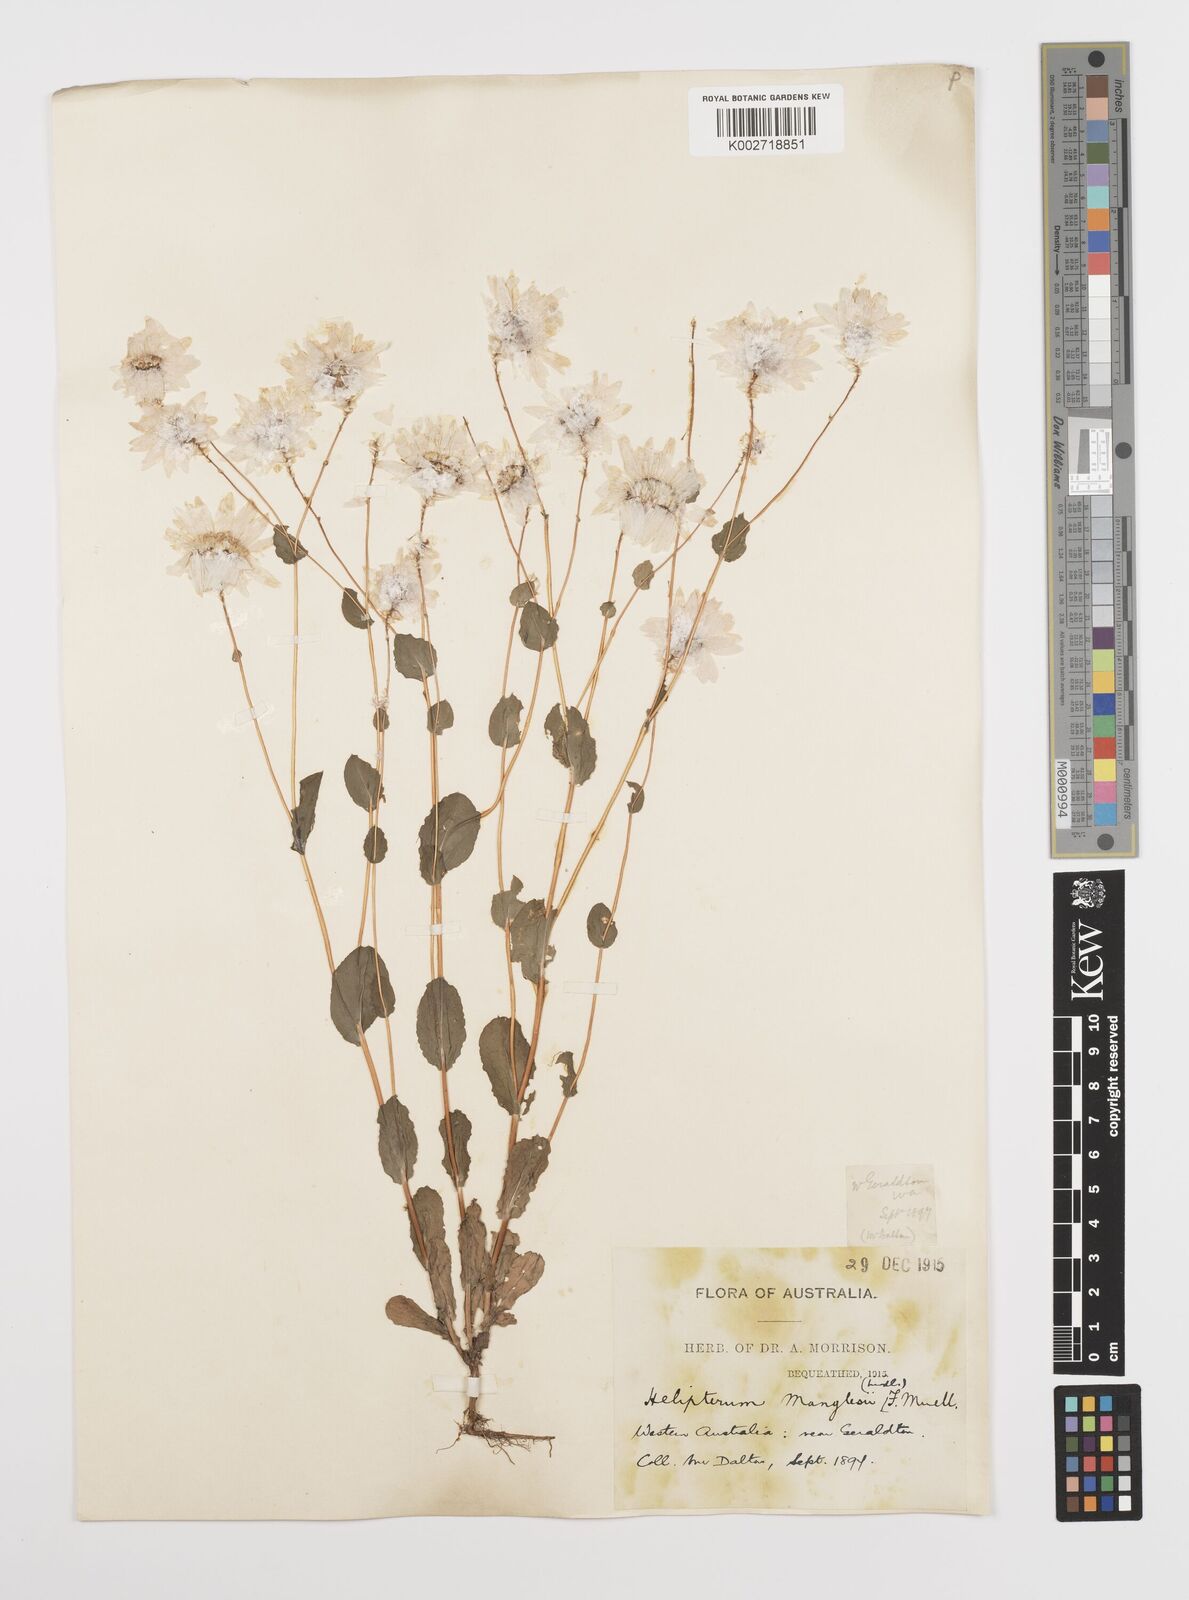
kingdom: Plantae
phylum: Tracheophyta
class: Magnoliopsida
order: Asterales
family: Asteraceae
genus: Rhodanthe
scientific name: Rhodanthe manglesii
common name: Pink sunray
